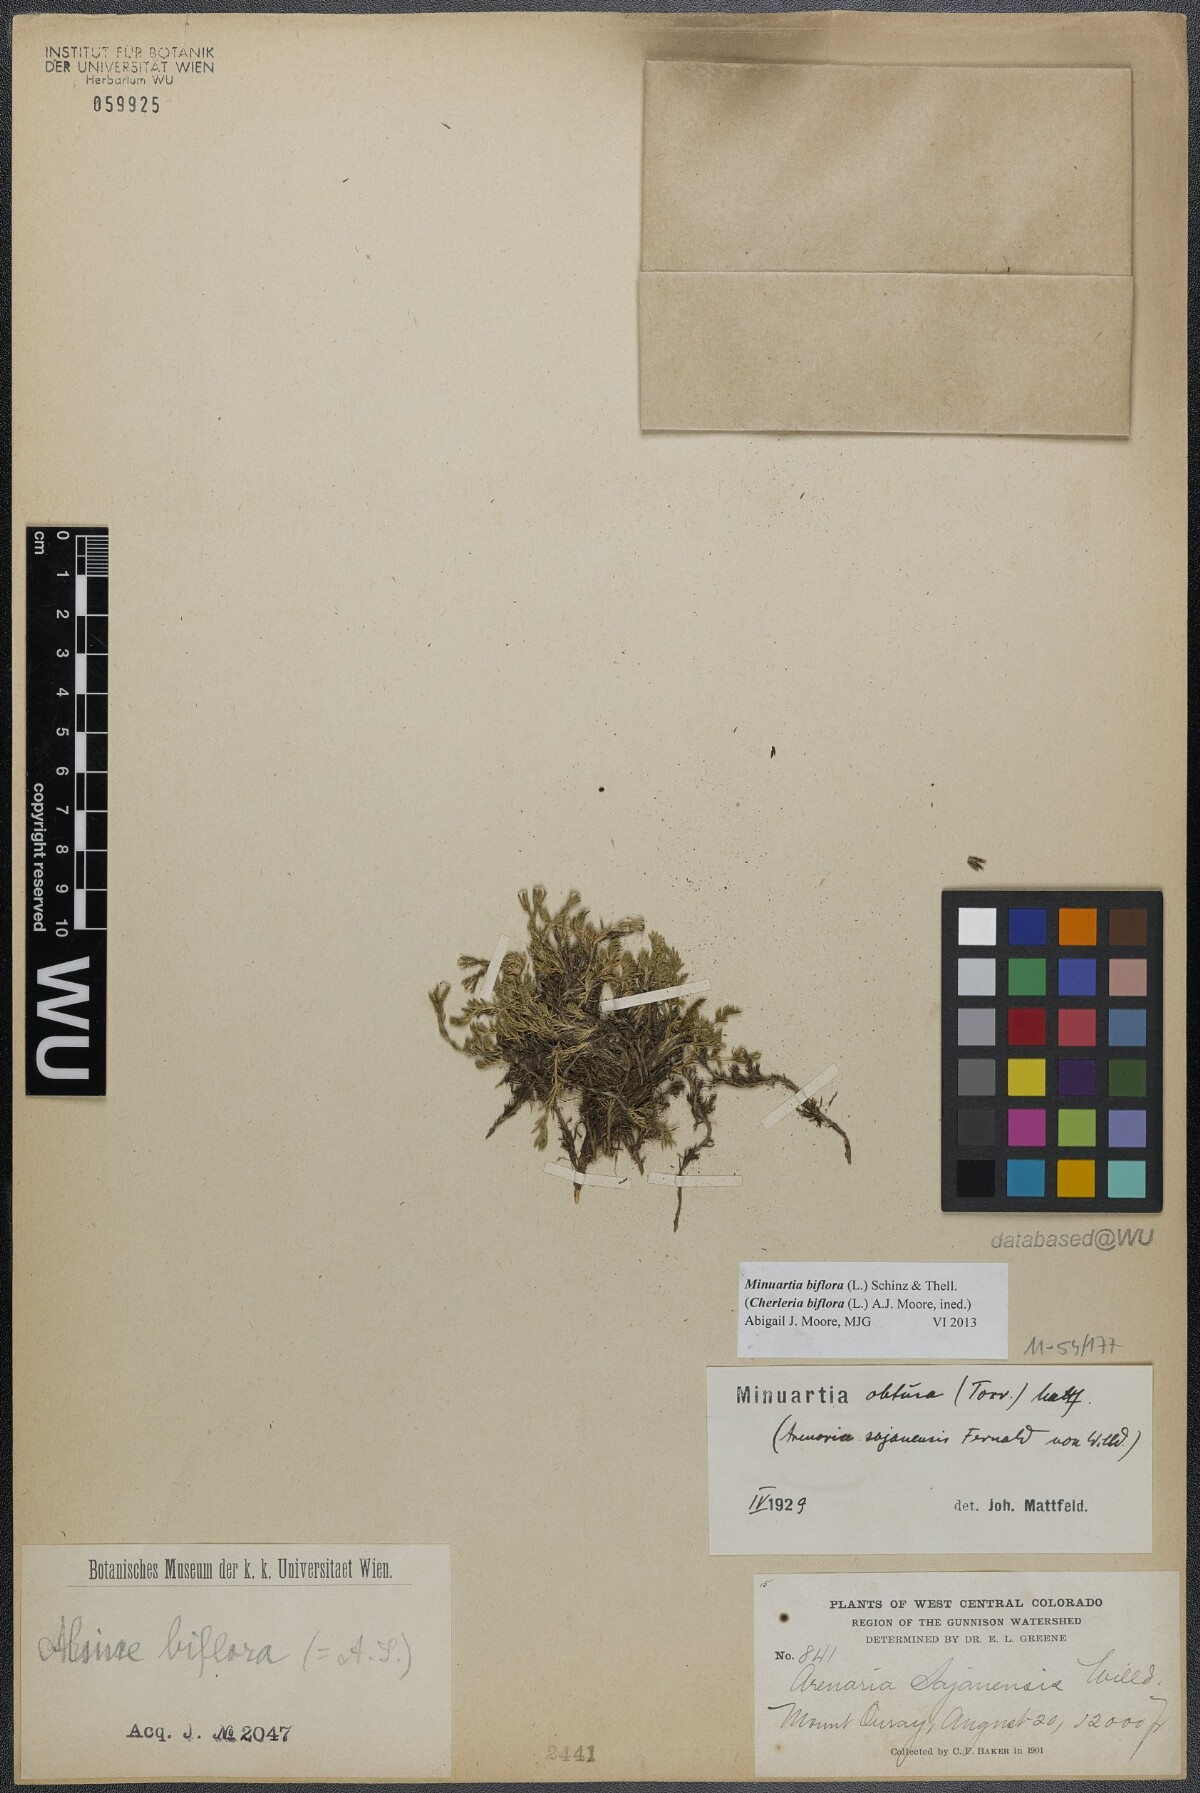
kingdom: Plantae
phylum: Tracheophyta
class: Magnoliopsida
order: Caryophyllales
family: Caryophyllaceae
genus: Cherleria
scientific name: Cherleria biflora
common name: Mountain sandwort
